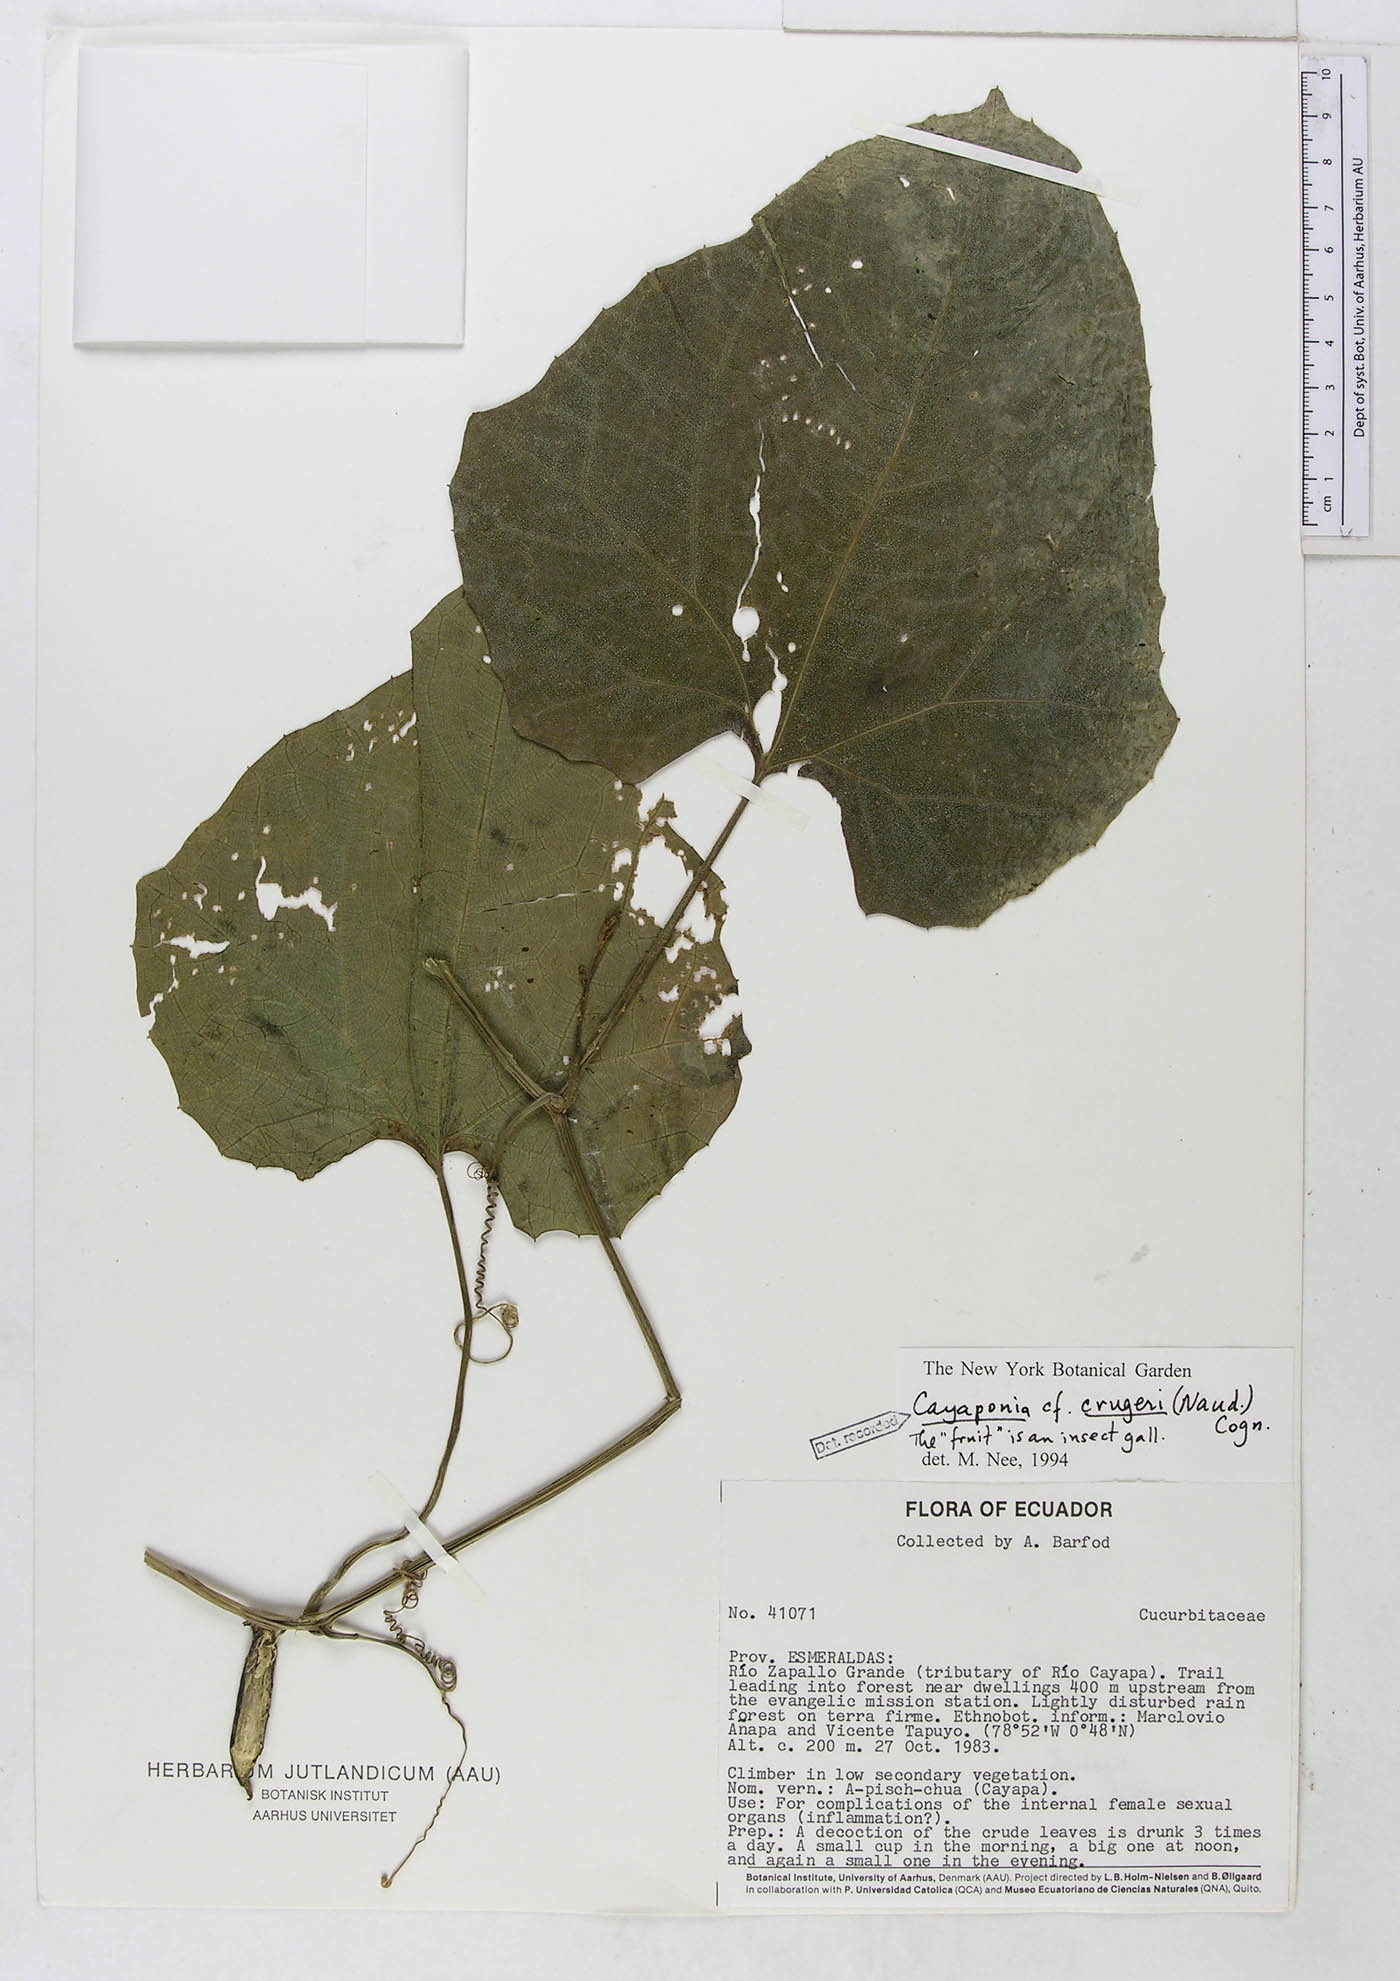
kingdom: Plantae
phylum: Tracheophyta
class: Magnoliopsida
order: Cucurbitales
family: Cucurbitaceae
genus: Cayaponia
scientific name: Cayaponia
